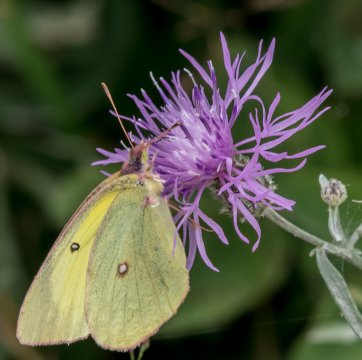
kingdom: Animalia
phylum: Arthropoda
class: Insecta
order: Lepidoptera
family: Pieridae
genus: Colias
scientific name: Colias interior
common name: Pink-edged Sulphur
